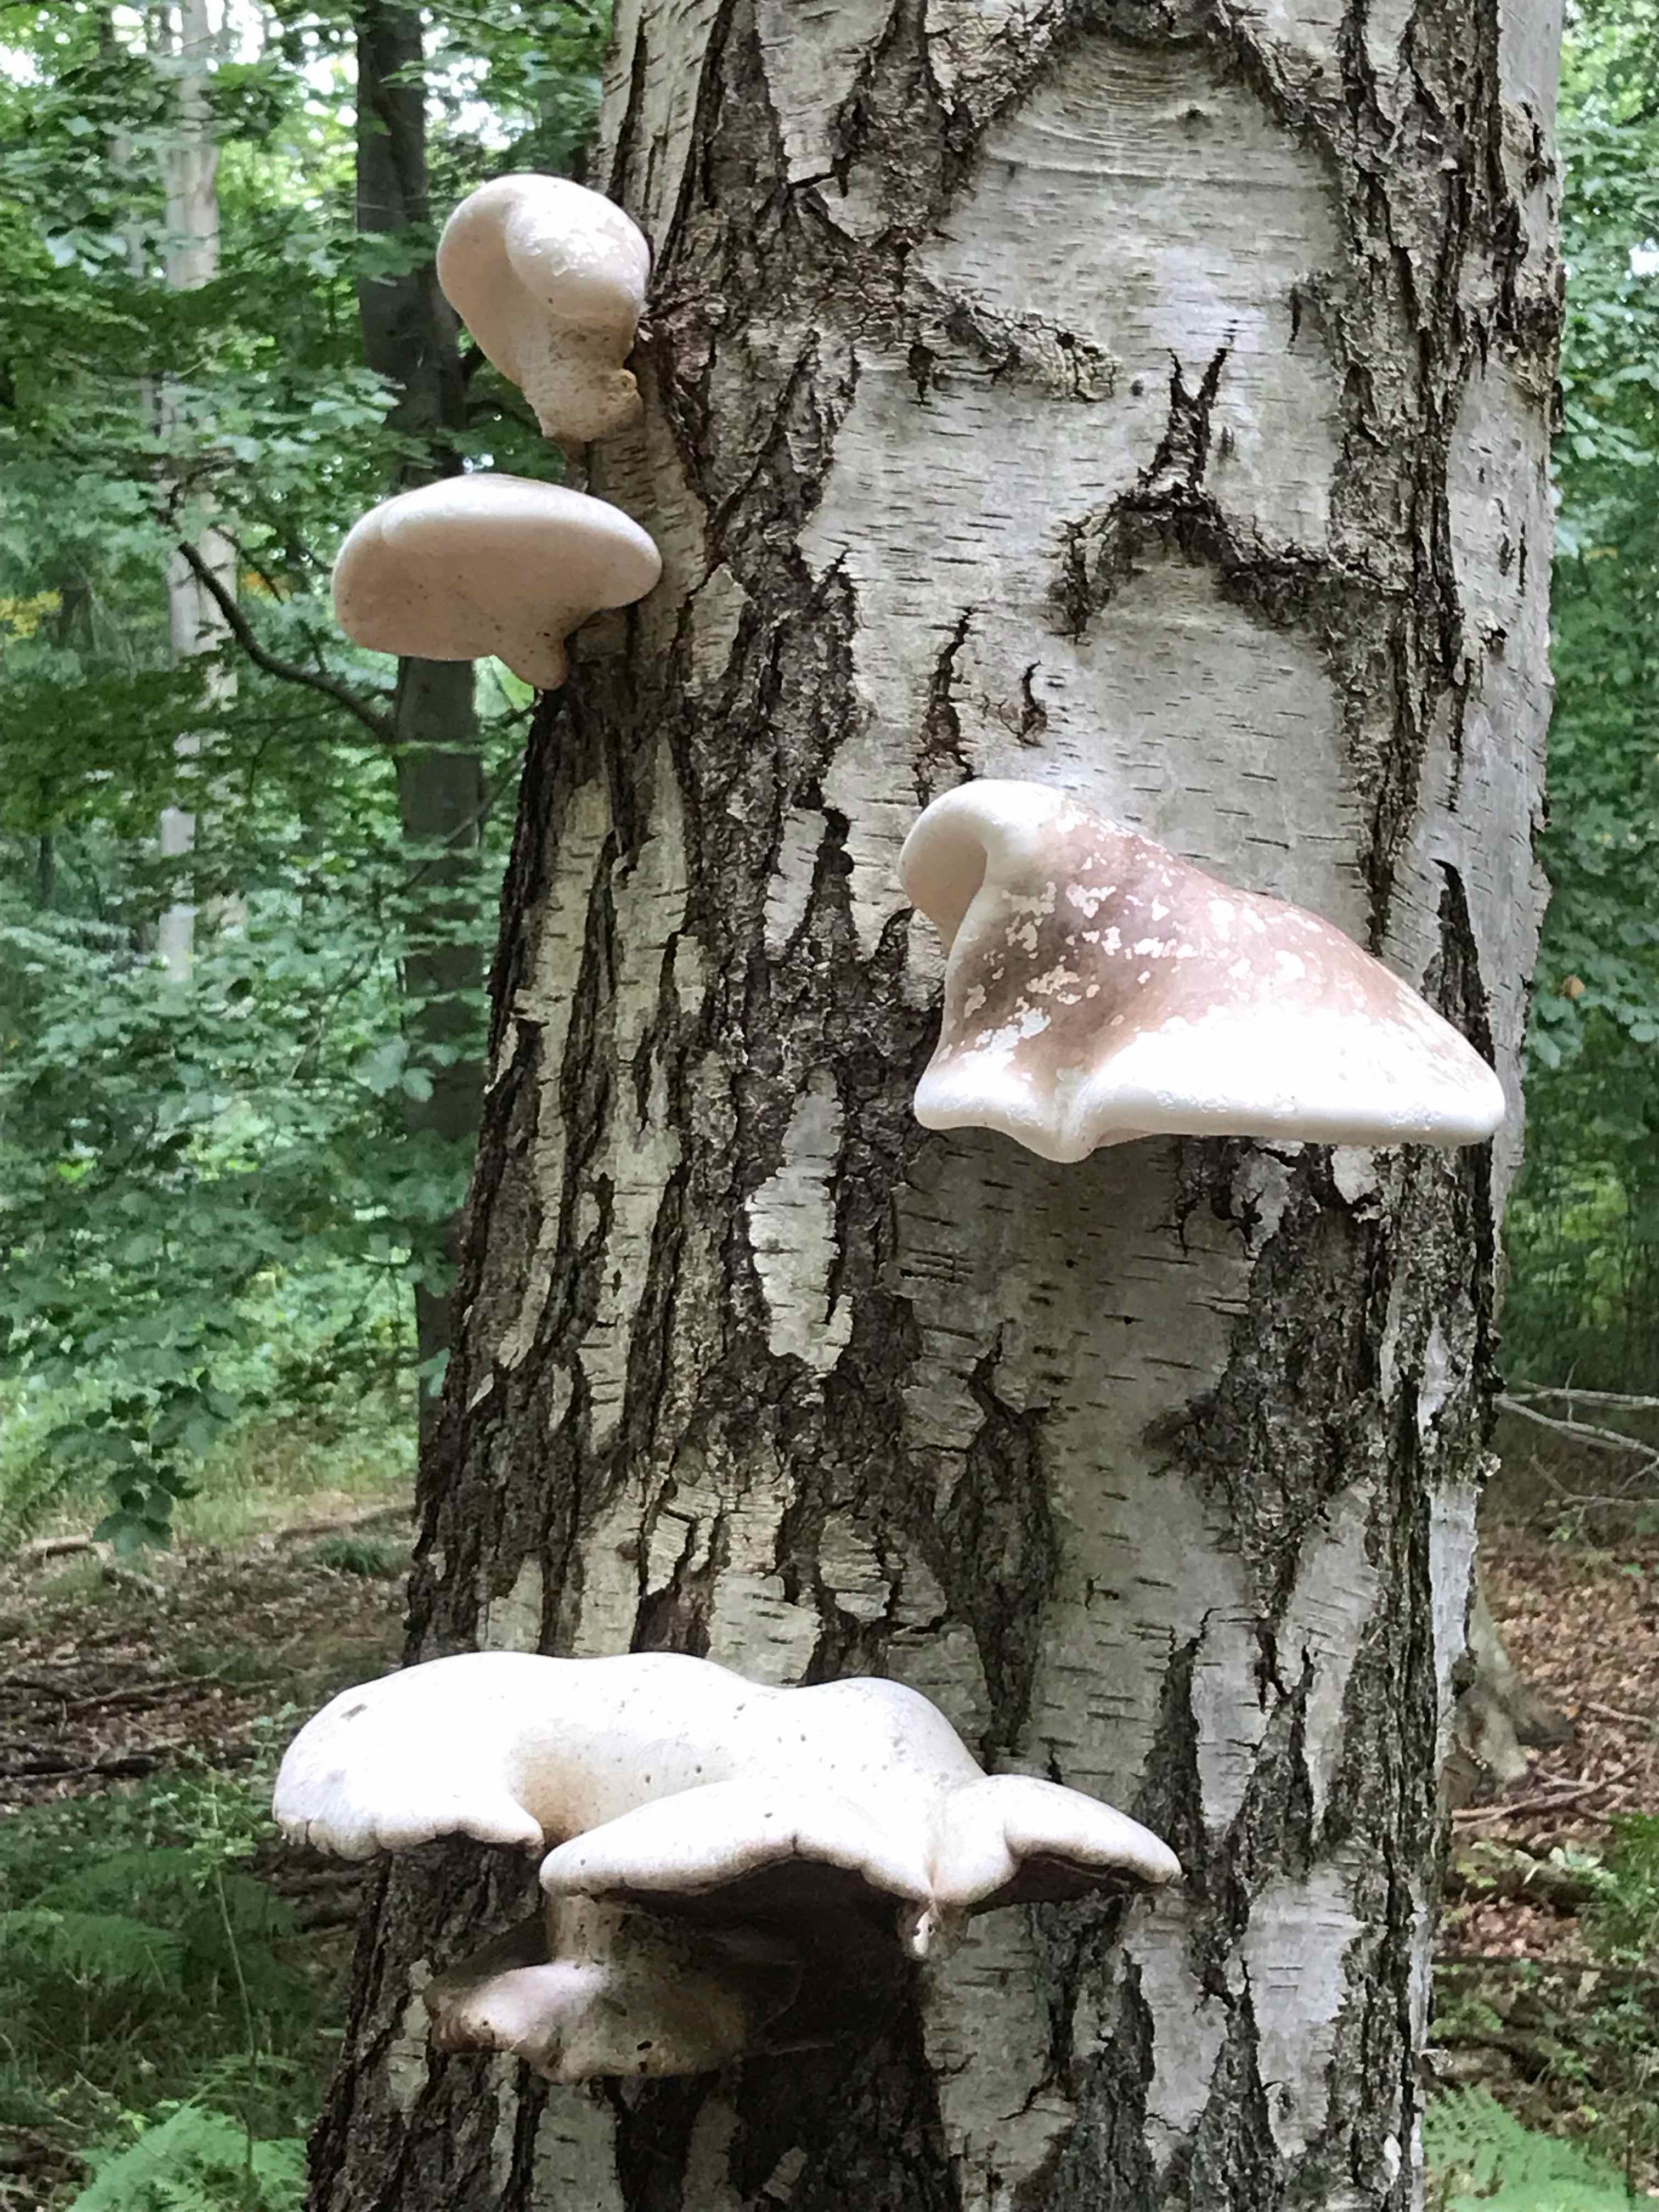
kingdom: Fungi
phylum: Basidiomycota
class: Agaricomycetes
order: Polyporales
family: Fomitopsidaceae
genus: Fomitopsis
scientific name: Fomitopsis betulina
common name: birkeporesvamp
